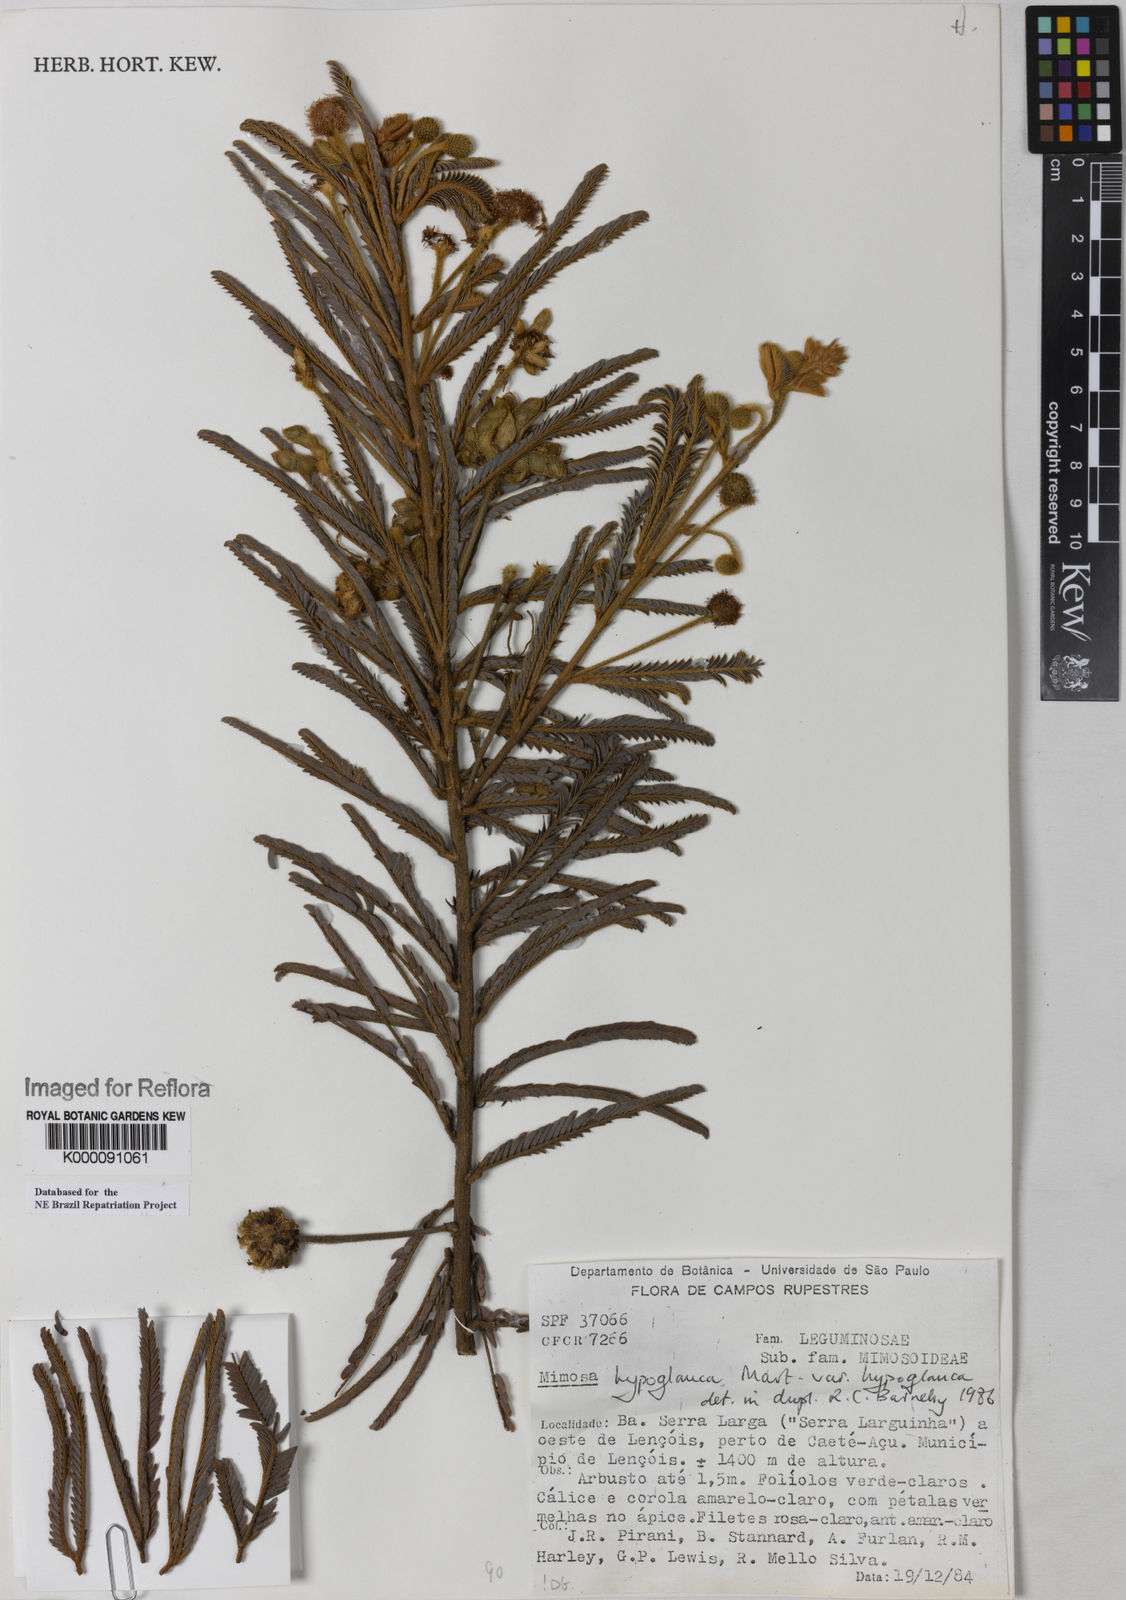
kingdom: Plantae
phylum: Tracheophyta
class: Magnoliopsida
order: Fabales
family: Fabaceae
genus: Mimosa
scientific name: Mimosa hypoglauca
